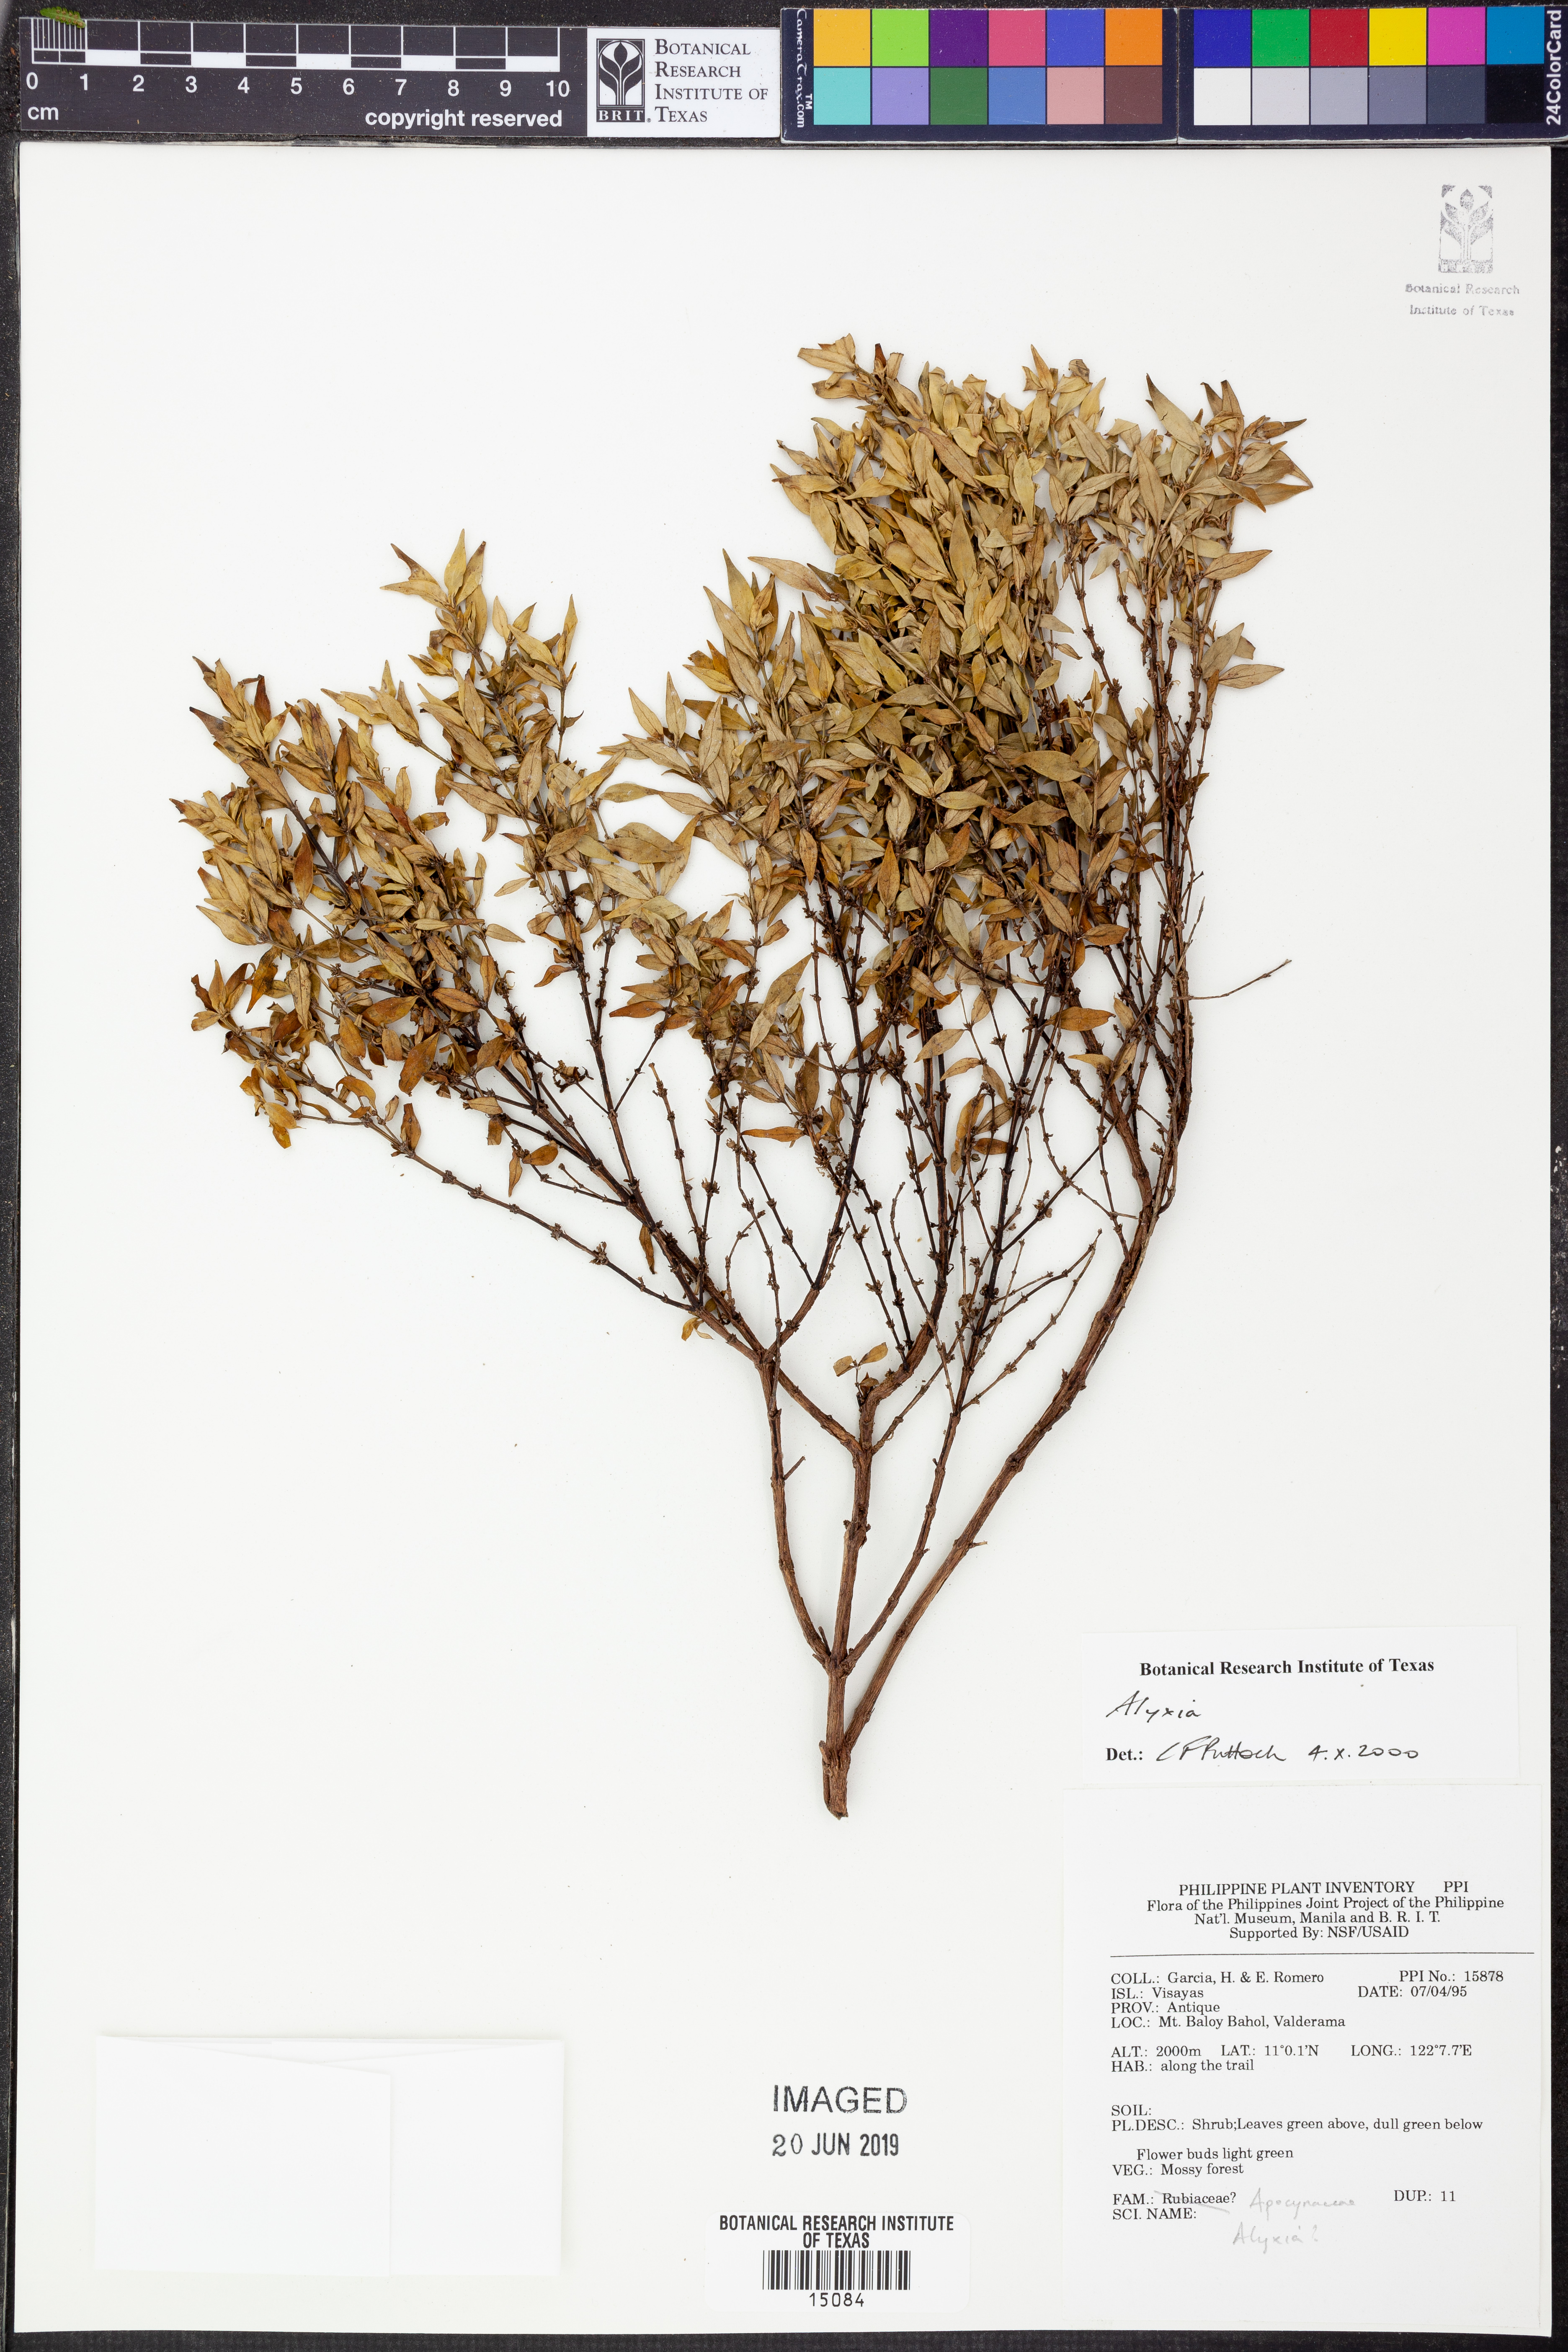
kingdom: Plantae
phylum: Tracheophyta
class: Magnoliopsida
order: Gentianales
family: Apocynaceae
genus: Alyxia
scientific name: Alyxia
